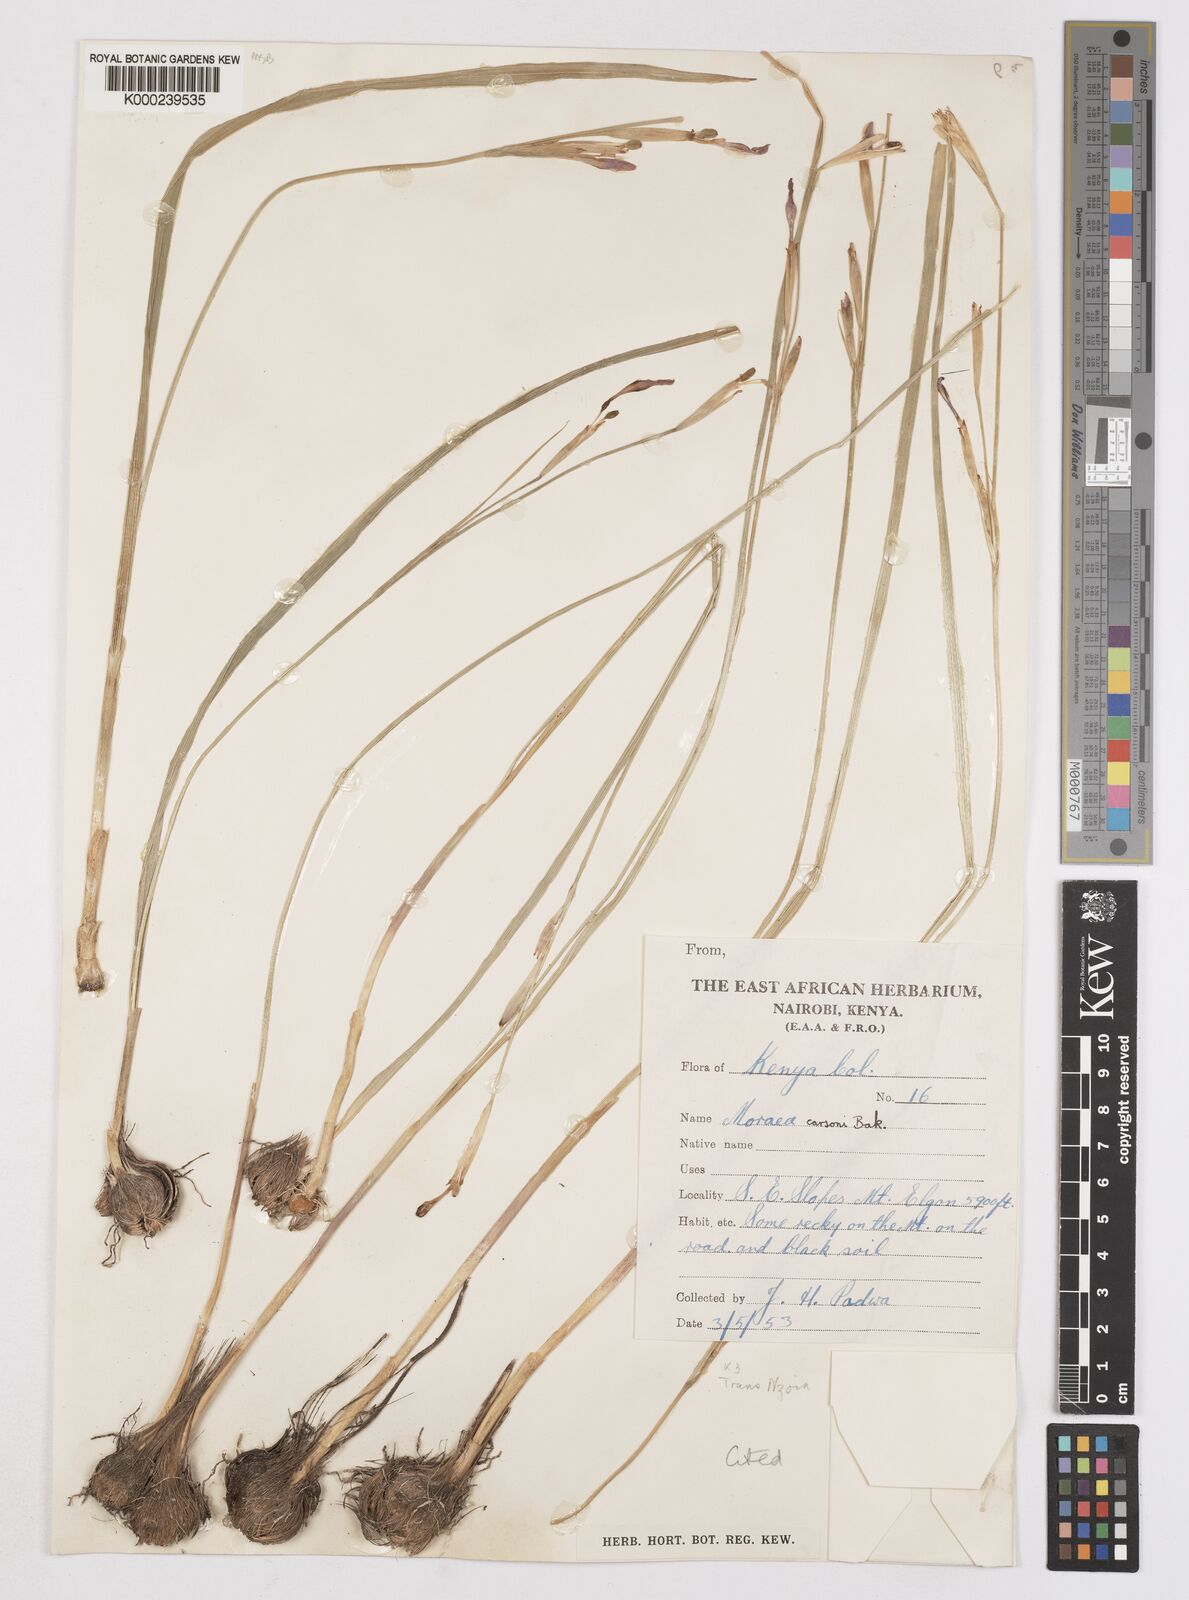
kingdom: Plantae
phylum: Tracheophyta
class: Liliopsida
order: Asparagales
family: Iridaceae
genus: Moraea
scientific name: Moraea
